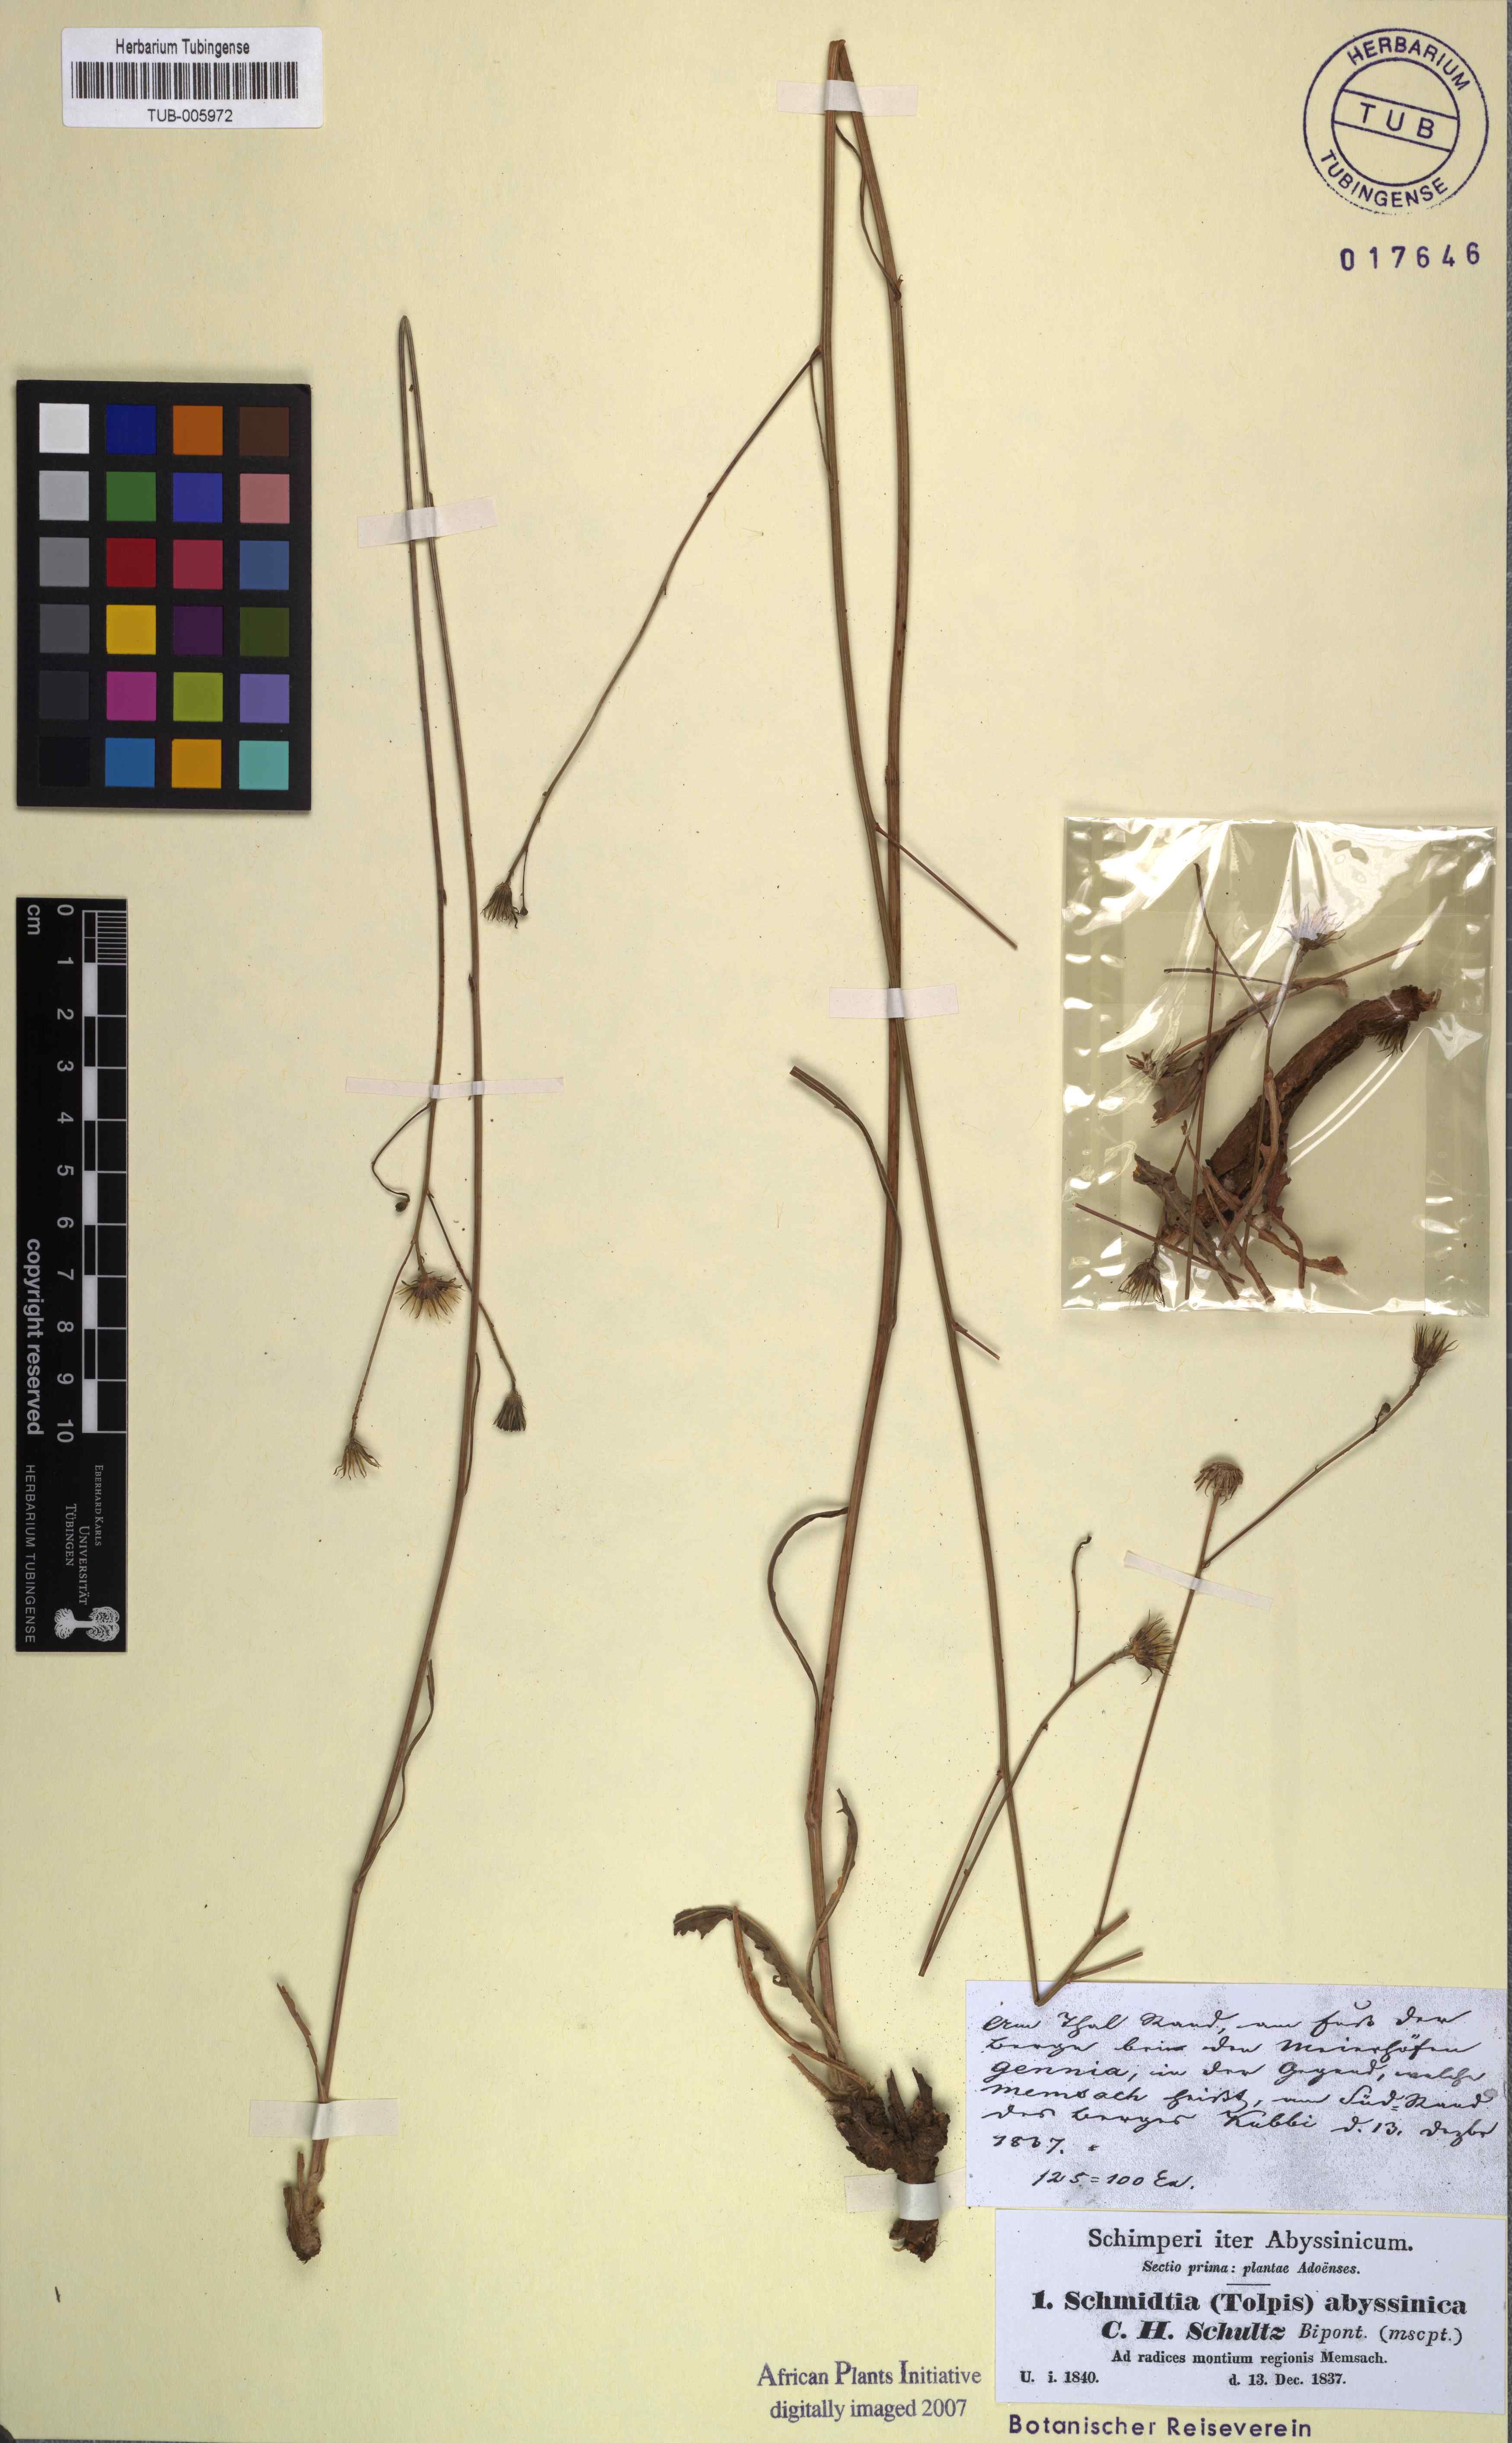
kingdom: Plantae
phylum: Tracheophyta
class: Magnoliopsida
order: Asterales
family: Asteraceae
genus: Tolpis
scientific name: Tolpis virgata
